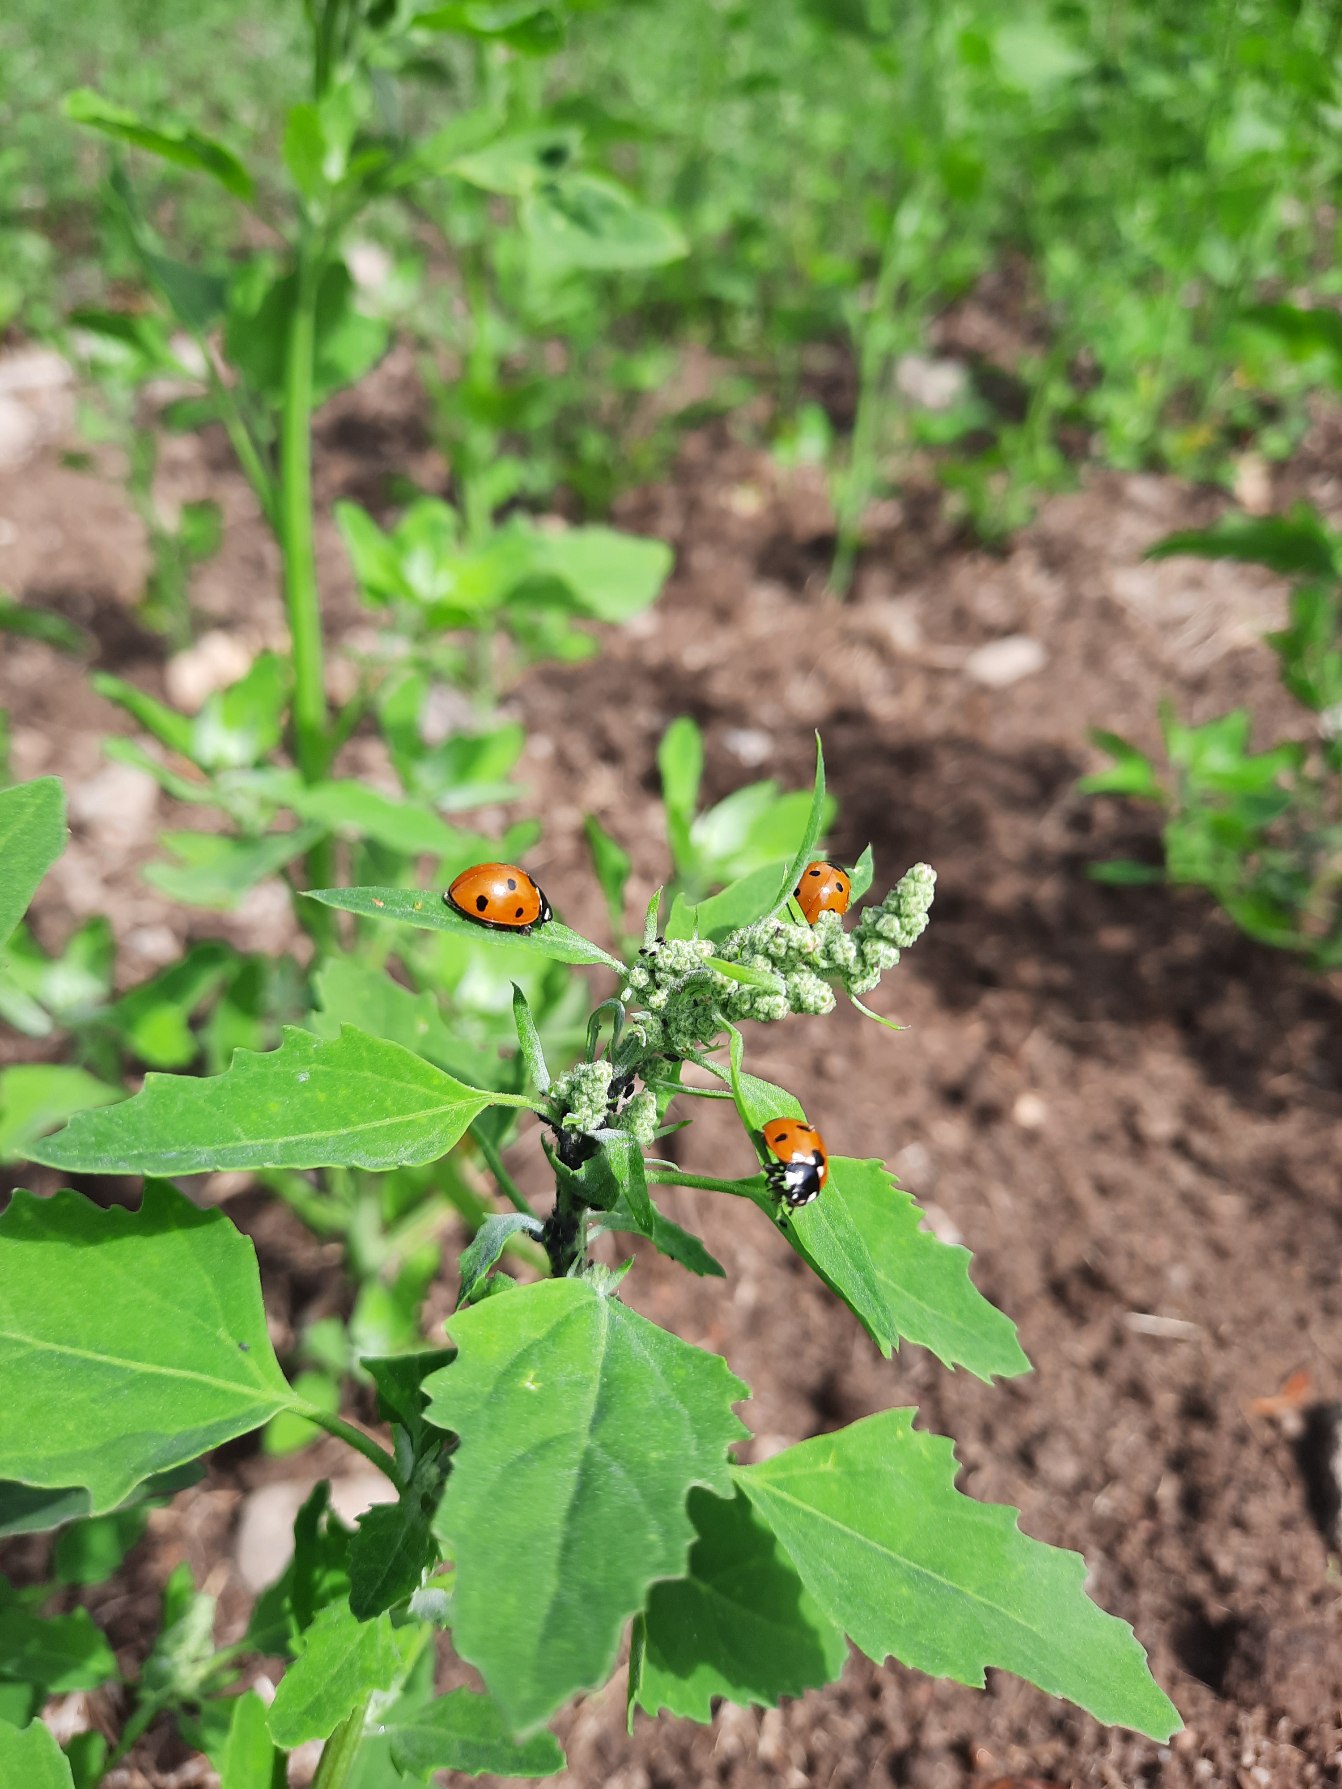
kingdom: Animalia
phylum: Arthropoda
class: Insecta
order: Coleoptera
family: Coccinellidae
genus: Coccinella
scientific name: Coccinella septempunctata
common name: Syvplettet mariehøne
